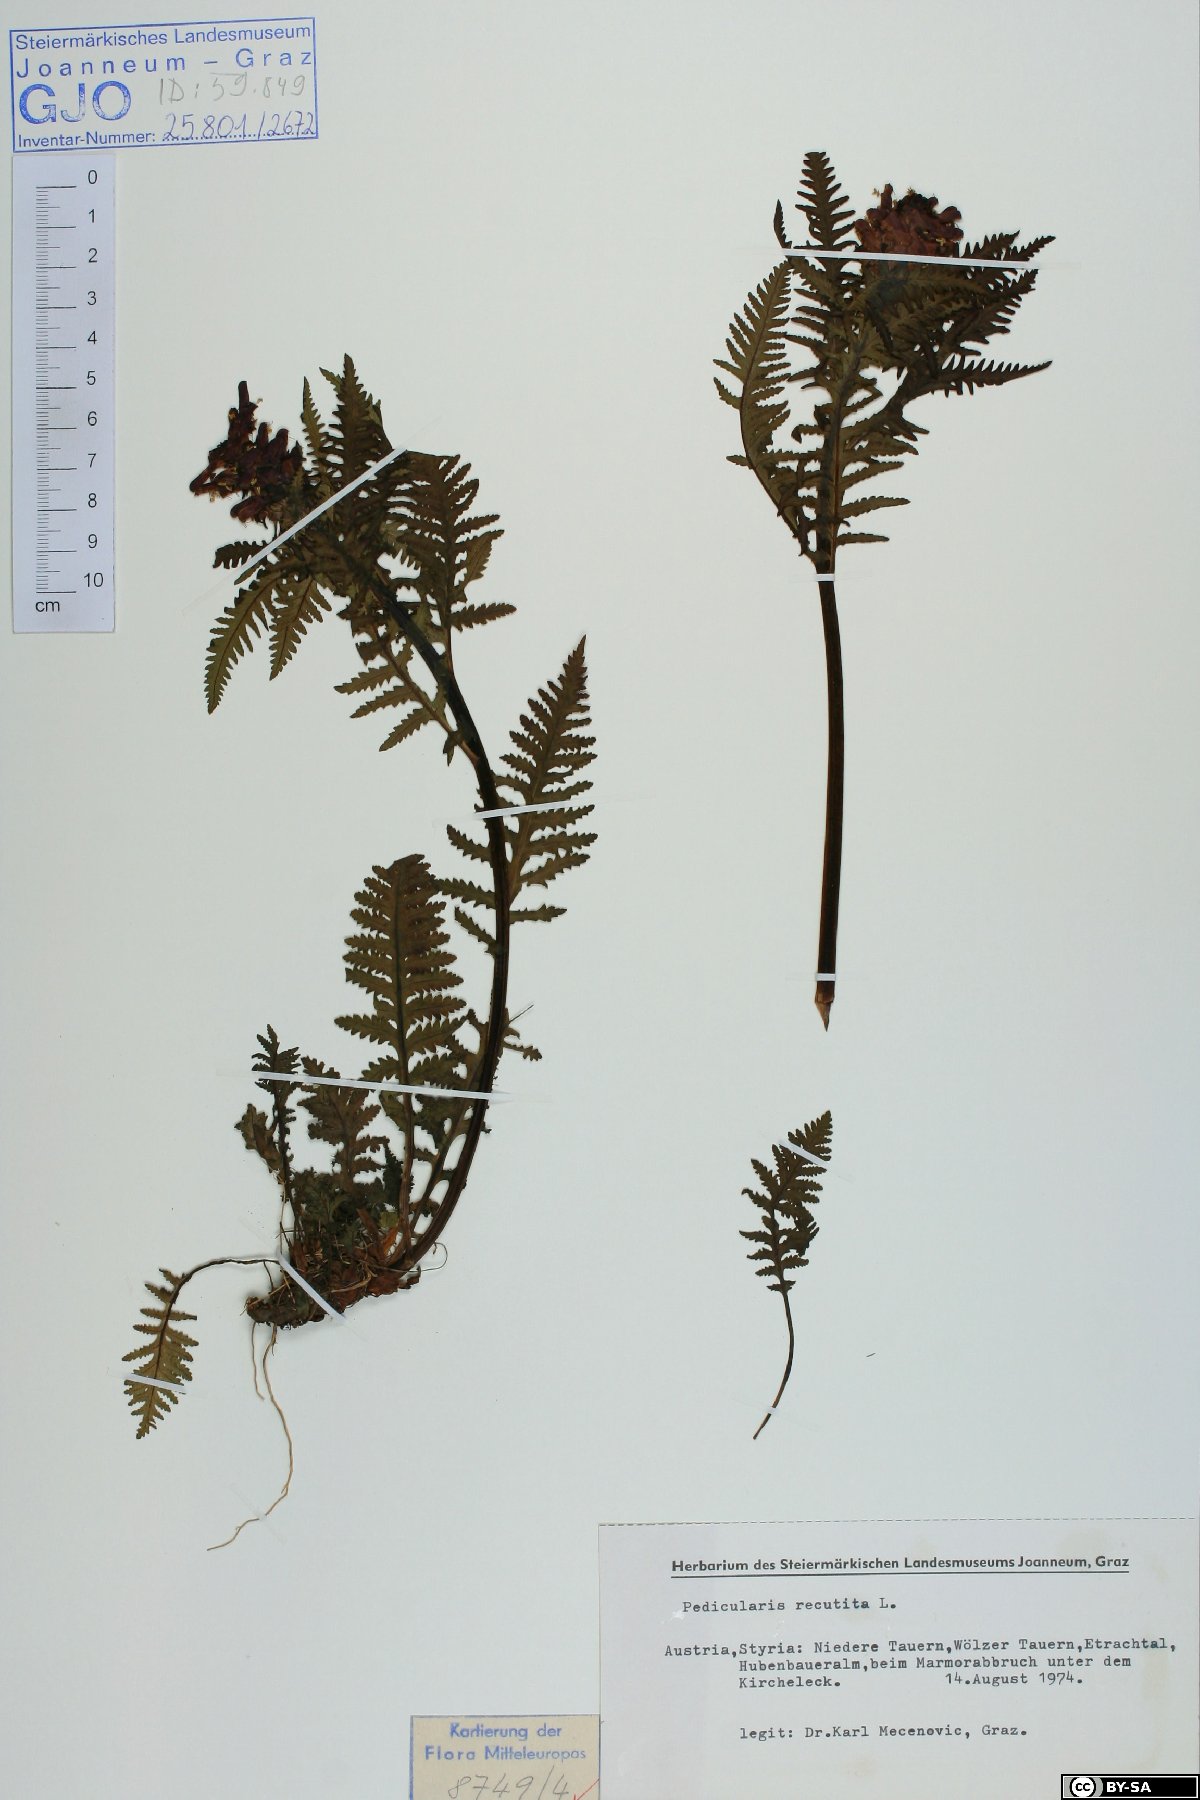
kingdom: Plantae
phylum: Tracheophyta
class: Magnoliopsida
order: Lamiales
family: Orobanchaceae
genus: Pedicularis
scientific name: Pedicularis recutita
